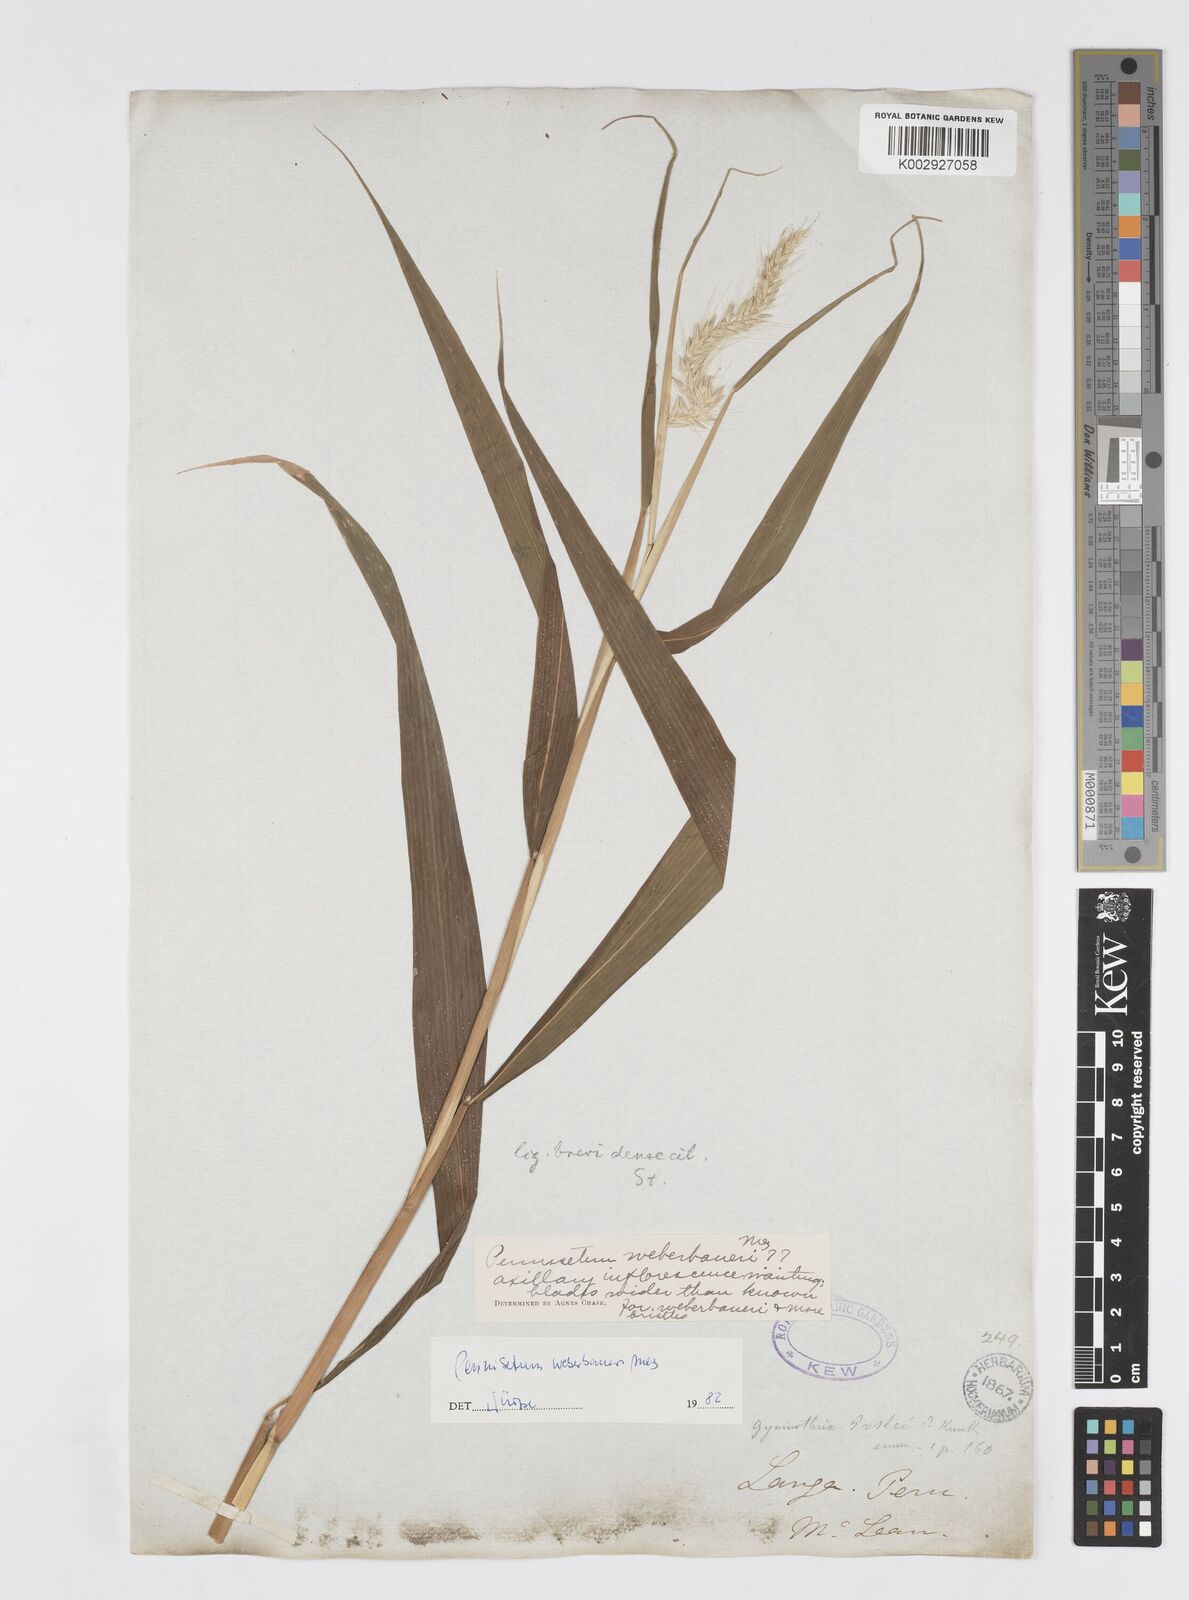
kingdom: Plantae
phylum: Tracheophyta
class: Liliopsida
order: Poales
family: Poaceae
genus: Cenchrus
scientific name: Cenchrus weberbaueri
